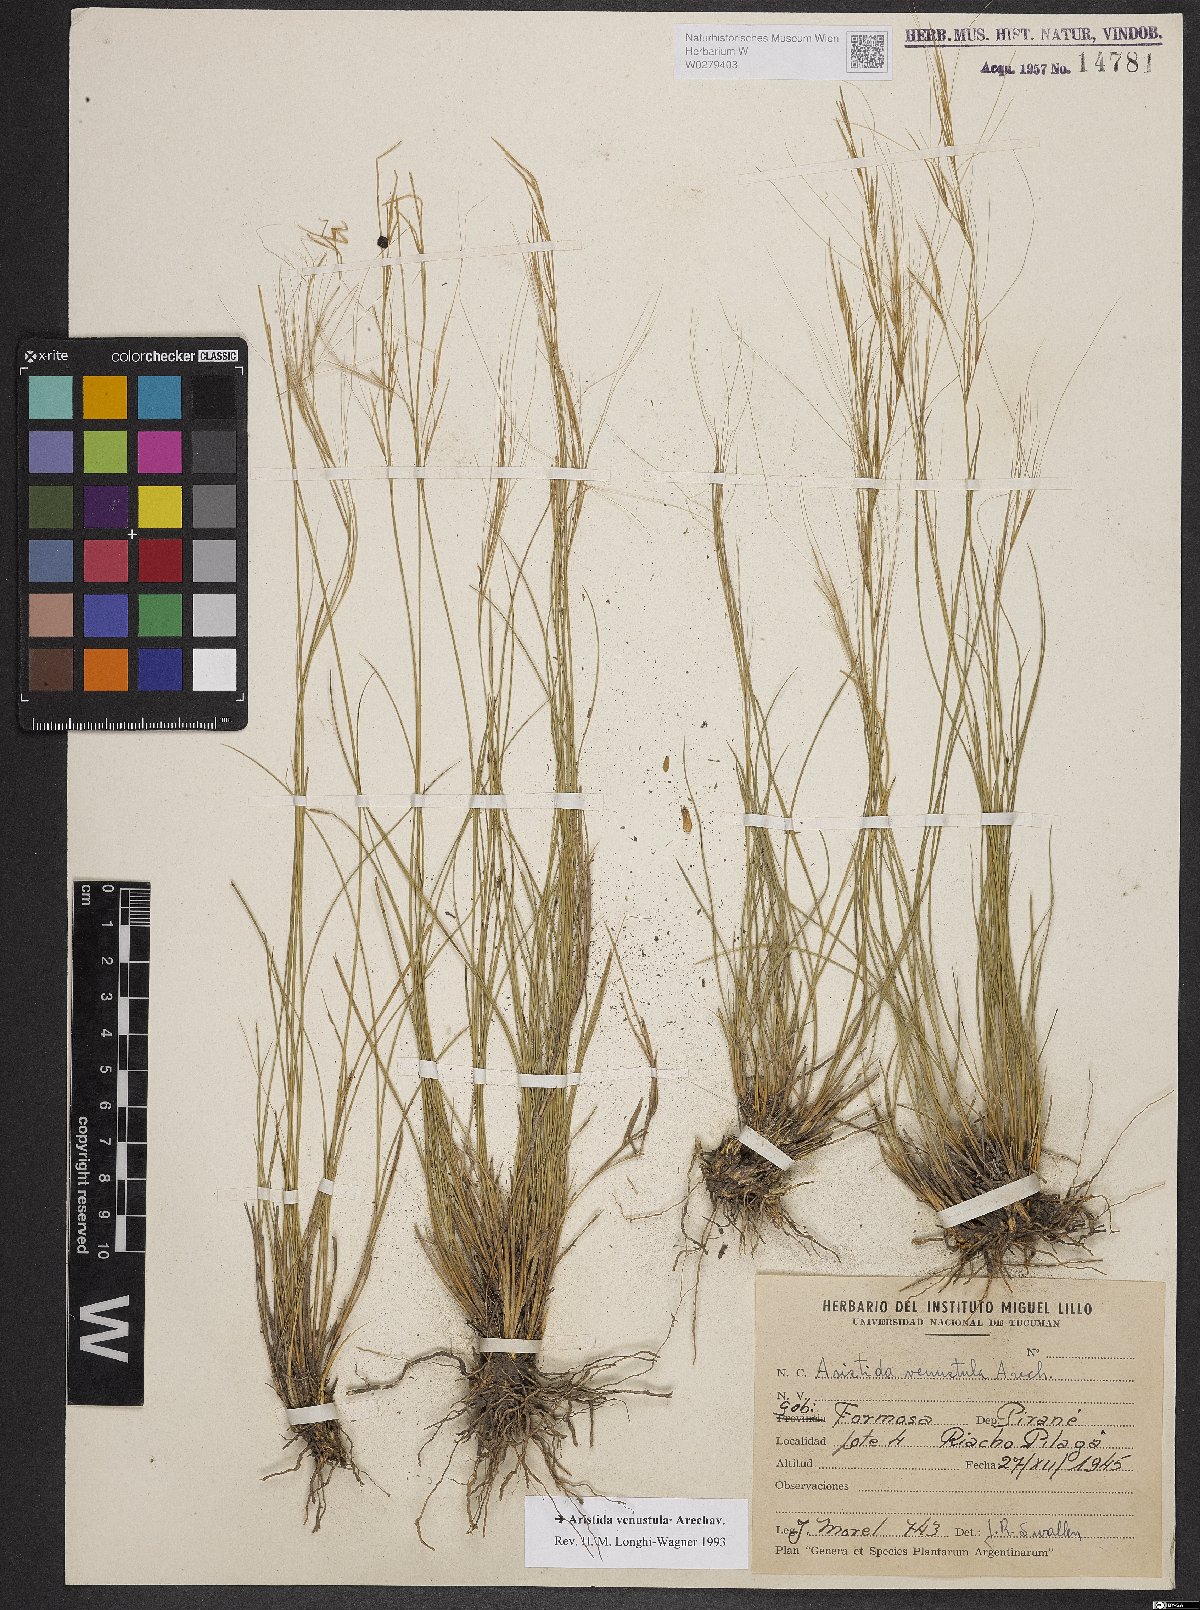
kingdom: Plantae
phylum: Tracheophyta
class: Liliopsida
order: Poales
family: Poaceae
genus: Aristida
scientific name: Aristida venustula
